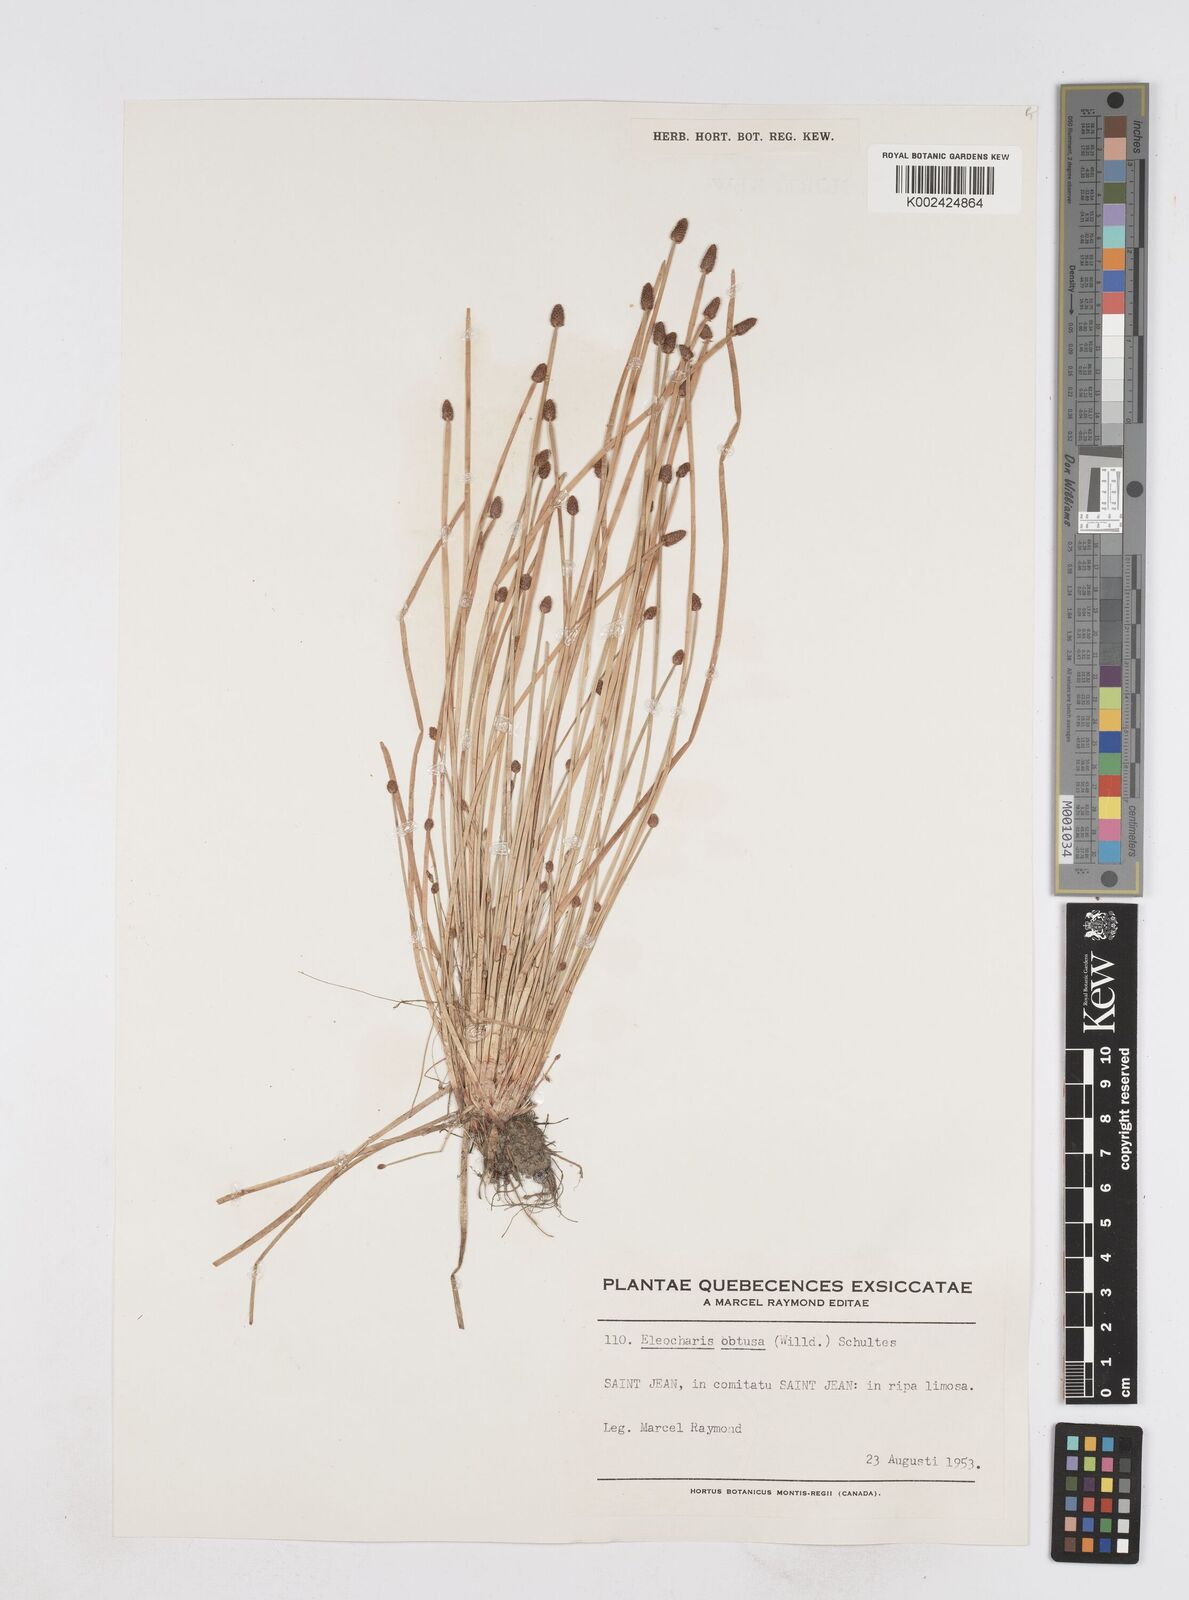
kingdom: Plantae
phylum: Tracheophyta
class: Liliopsida
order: Poales
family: Cyperaceae
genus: Eleocharis
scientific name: Eleocharis obtusa
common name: Blunt spikerush
